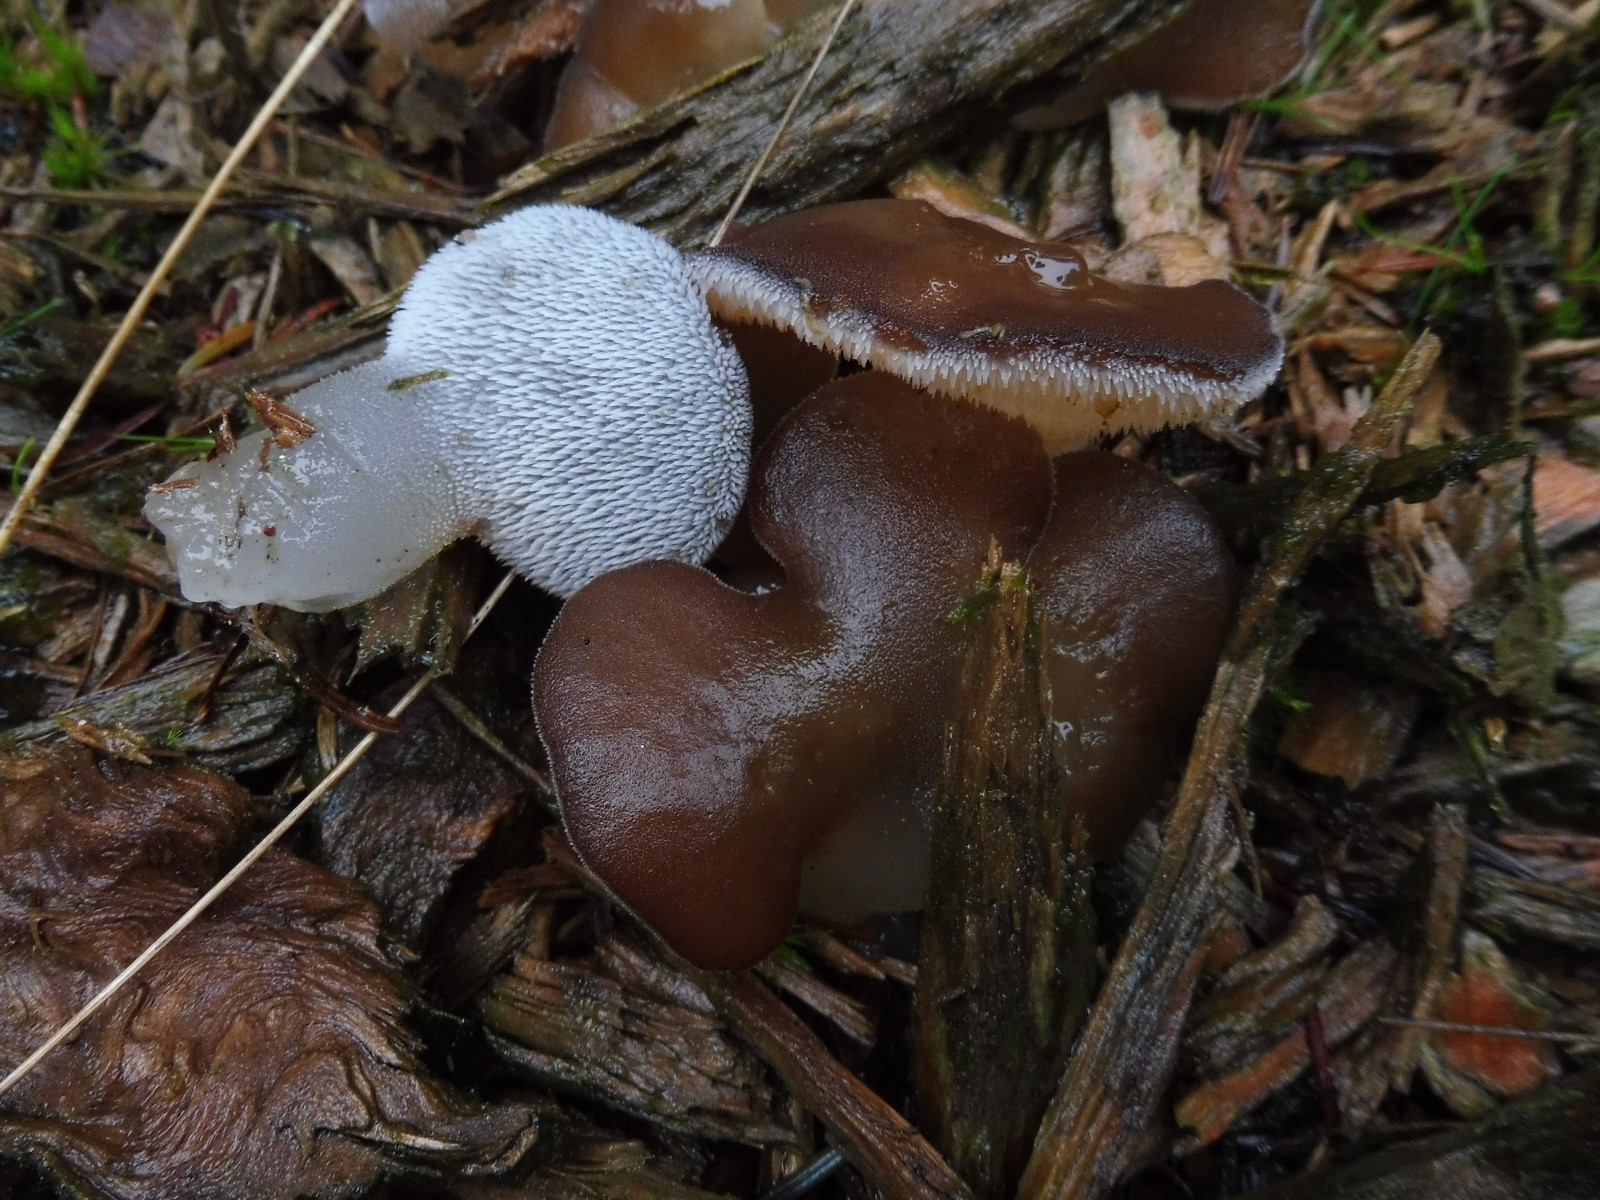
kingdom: Fungi
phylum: Basidiomycota
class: Agaricomycetes
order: Auriculariales
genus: Pseudohydnum
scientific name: Pseudohydnum gelatinosum
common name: bævretand
